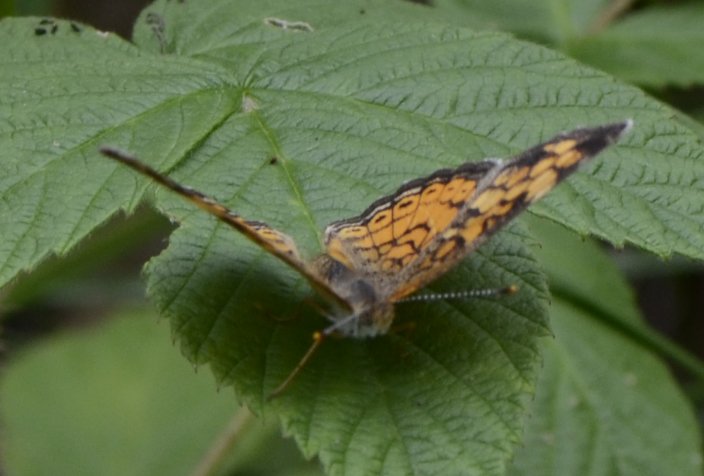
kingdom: Animalia
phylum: Arthropoda
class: Insecta
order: Lepidoptera
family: Nymphalidae
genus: Phyciodes
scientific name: Phyciodes tharos
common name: Northern Crescent
